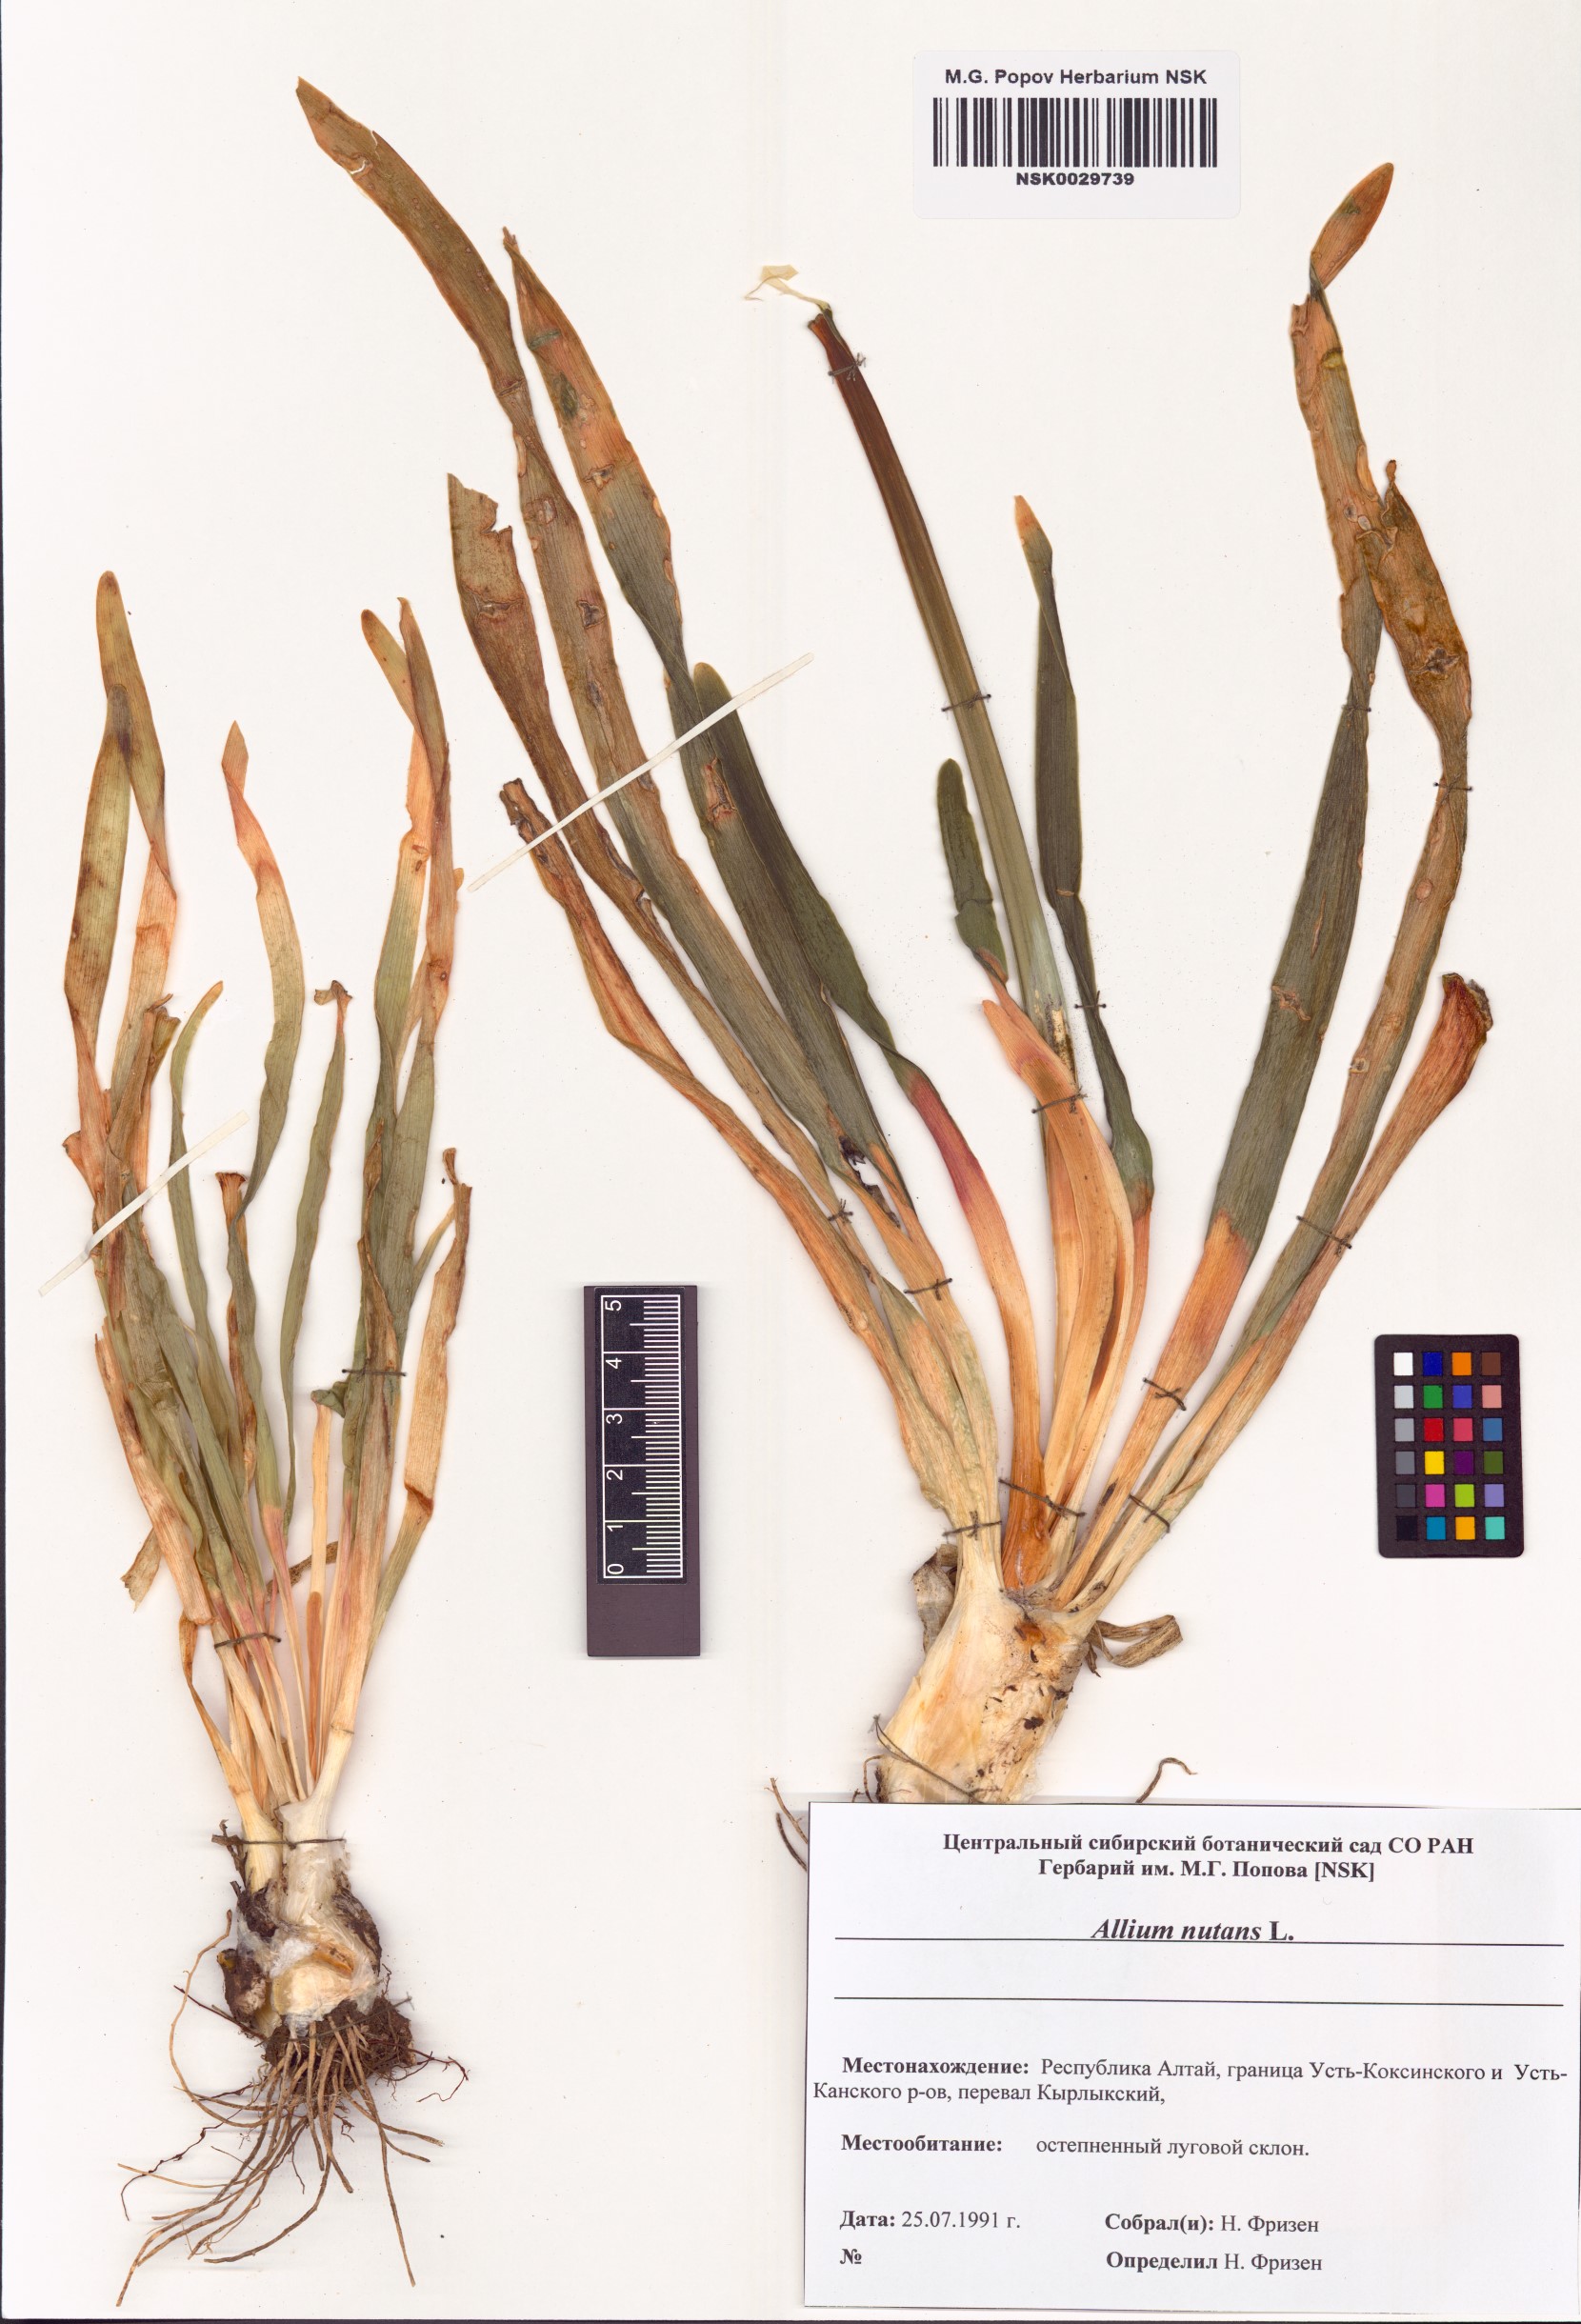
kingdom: Plantae
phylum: Tracheophyta
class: Liliopsida
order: Asparagales
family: Amaryllidaceae
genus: Allium
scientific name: Allium nutans
